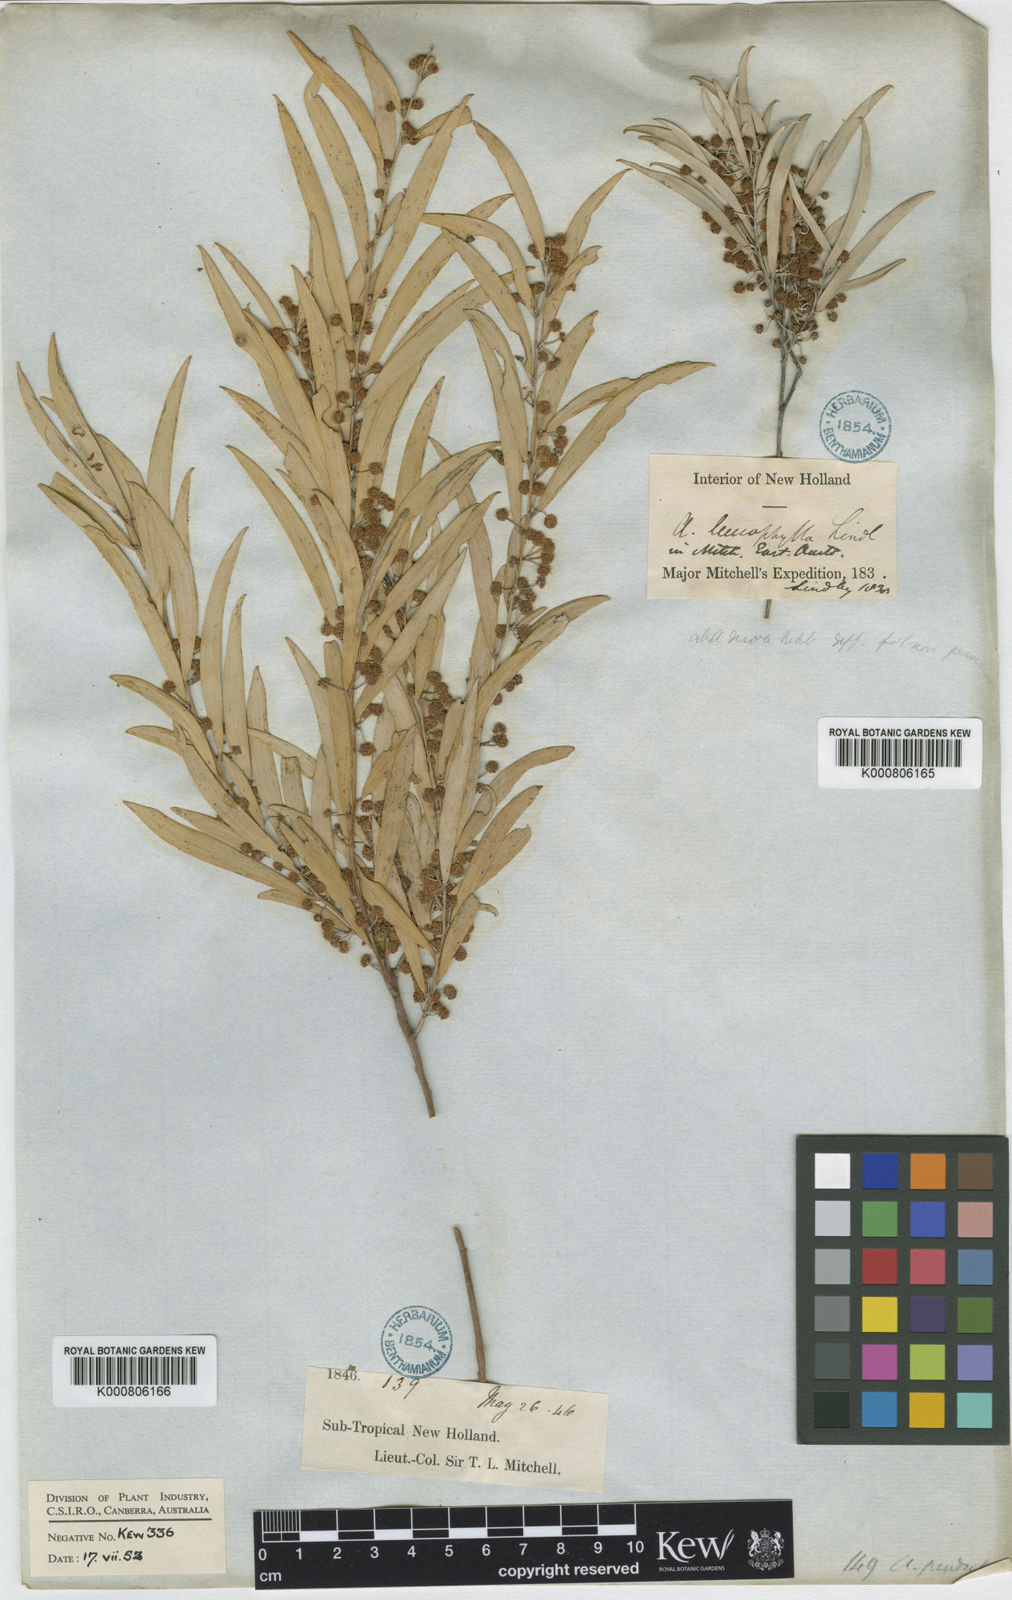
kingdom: Plantae
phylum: Tracheophyta
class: Magnoliopsida
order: Fabales
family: Fabaceae
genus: Acacia
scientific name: Acacia pendula
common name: Weeping myall
